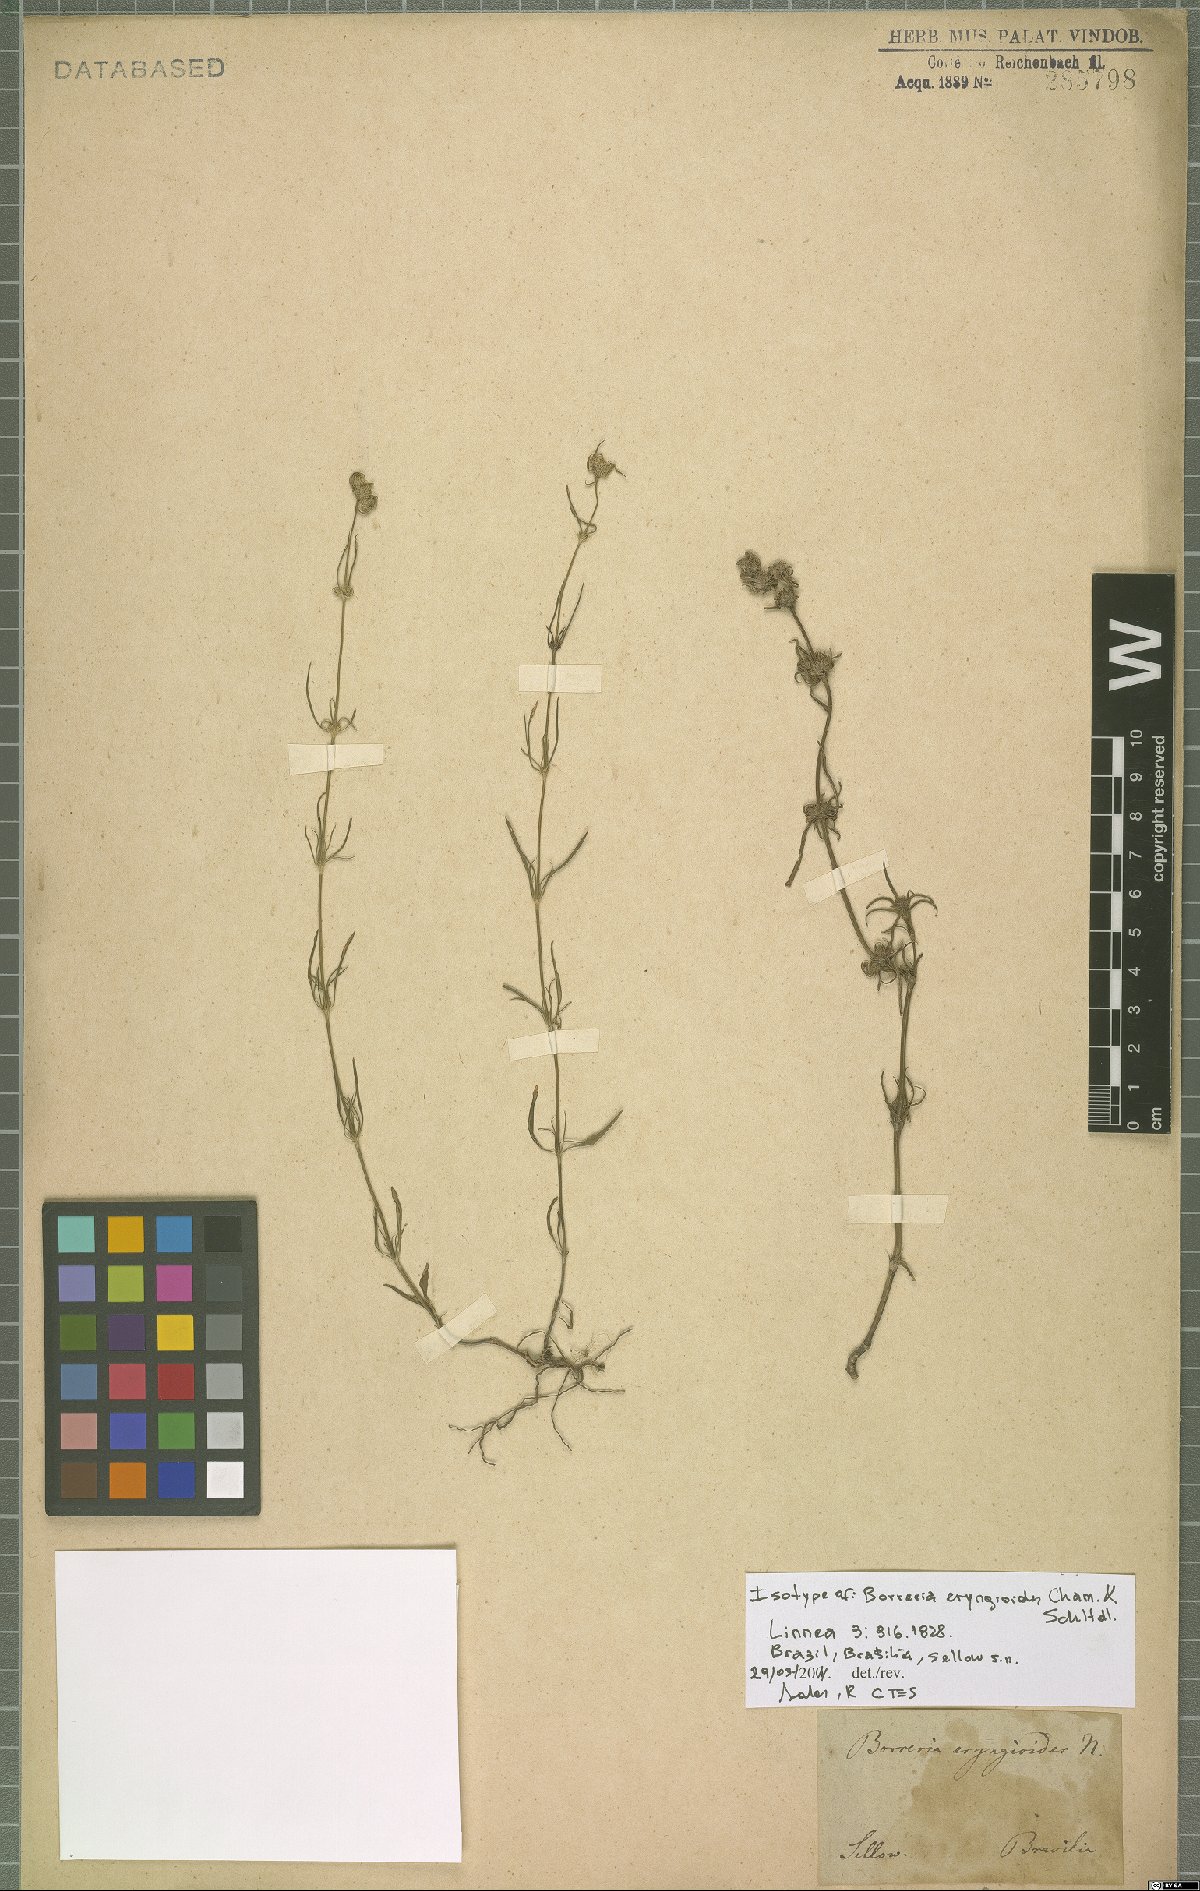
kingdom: Plantae
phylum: Tracheophyta
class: Magnoliopsida
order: Gentianales
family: Rubiaceae
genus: Spermacoce
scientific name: Spermacoce eryngioides
